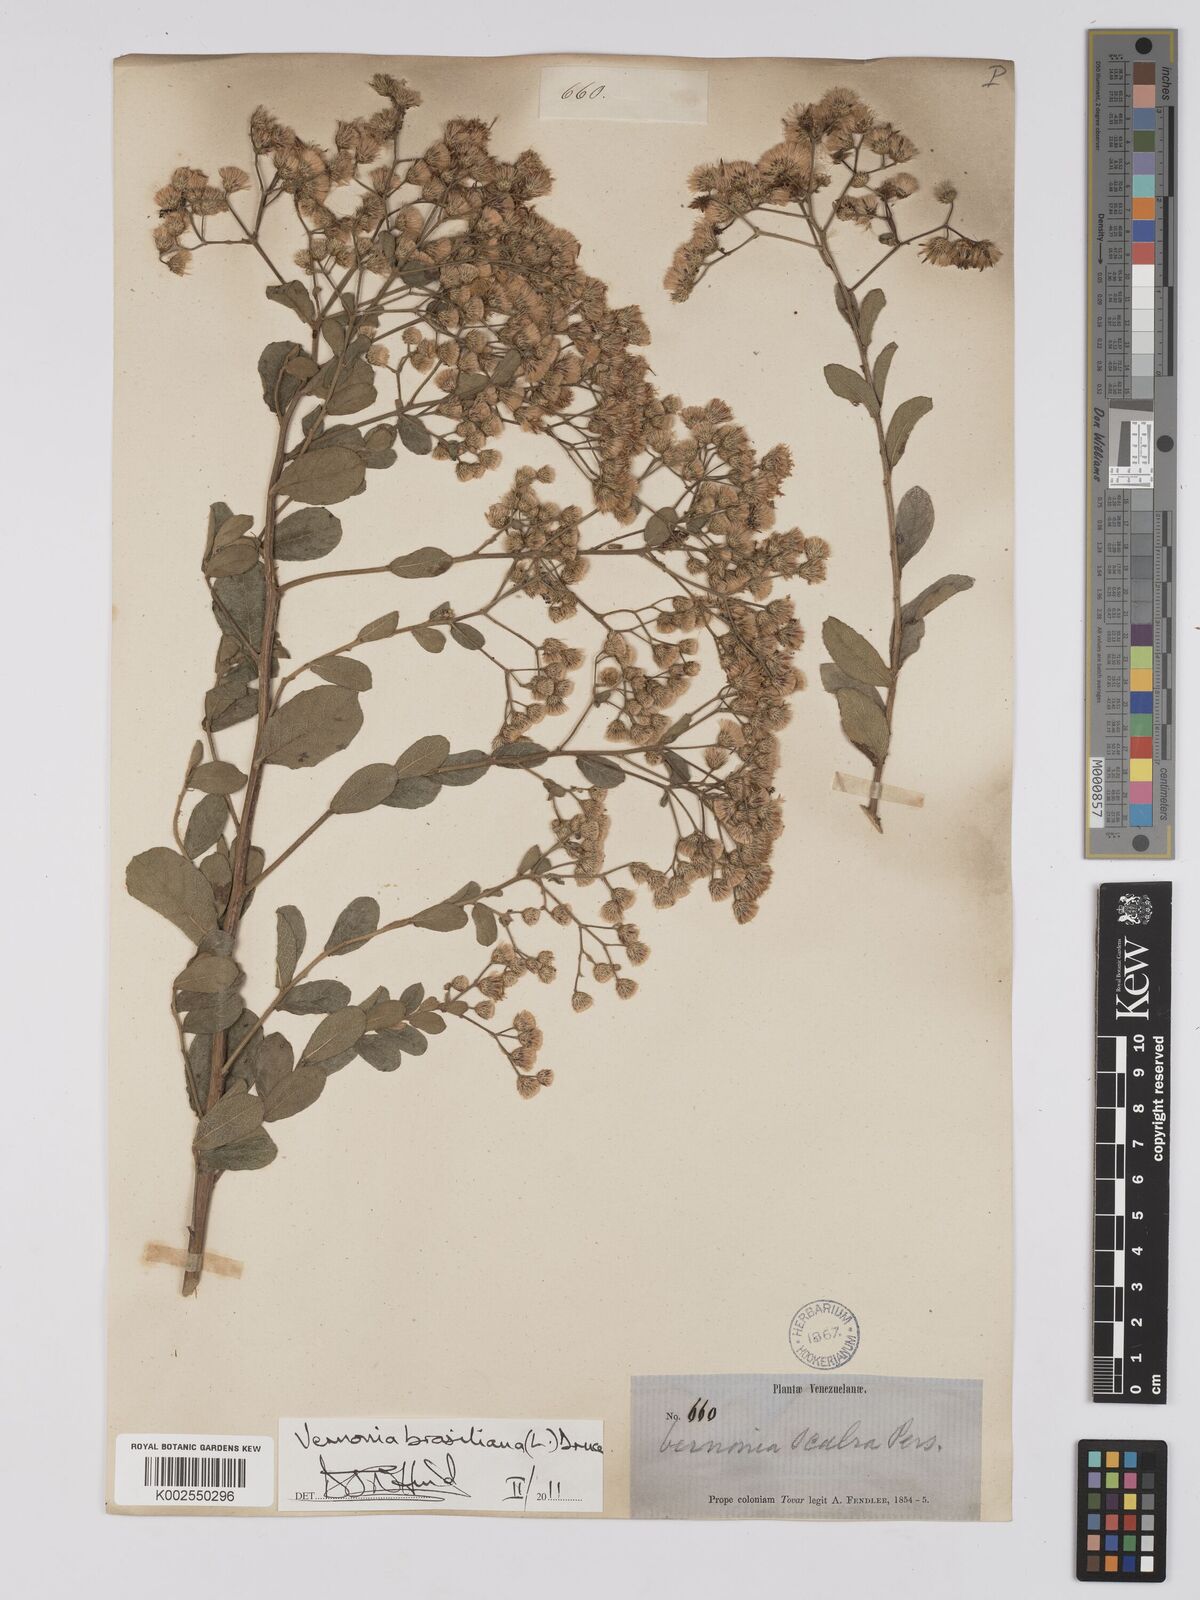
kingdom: Plantae
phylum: Tracheophyta
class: Magnoliopsida
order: Asterales
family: Asteraceae
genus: Vernonanthura
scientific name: Vernonanthura brasiliana
